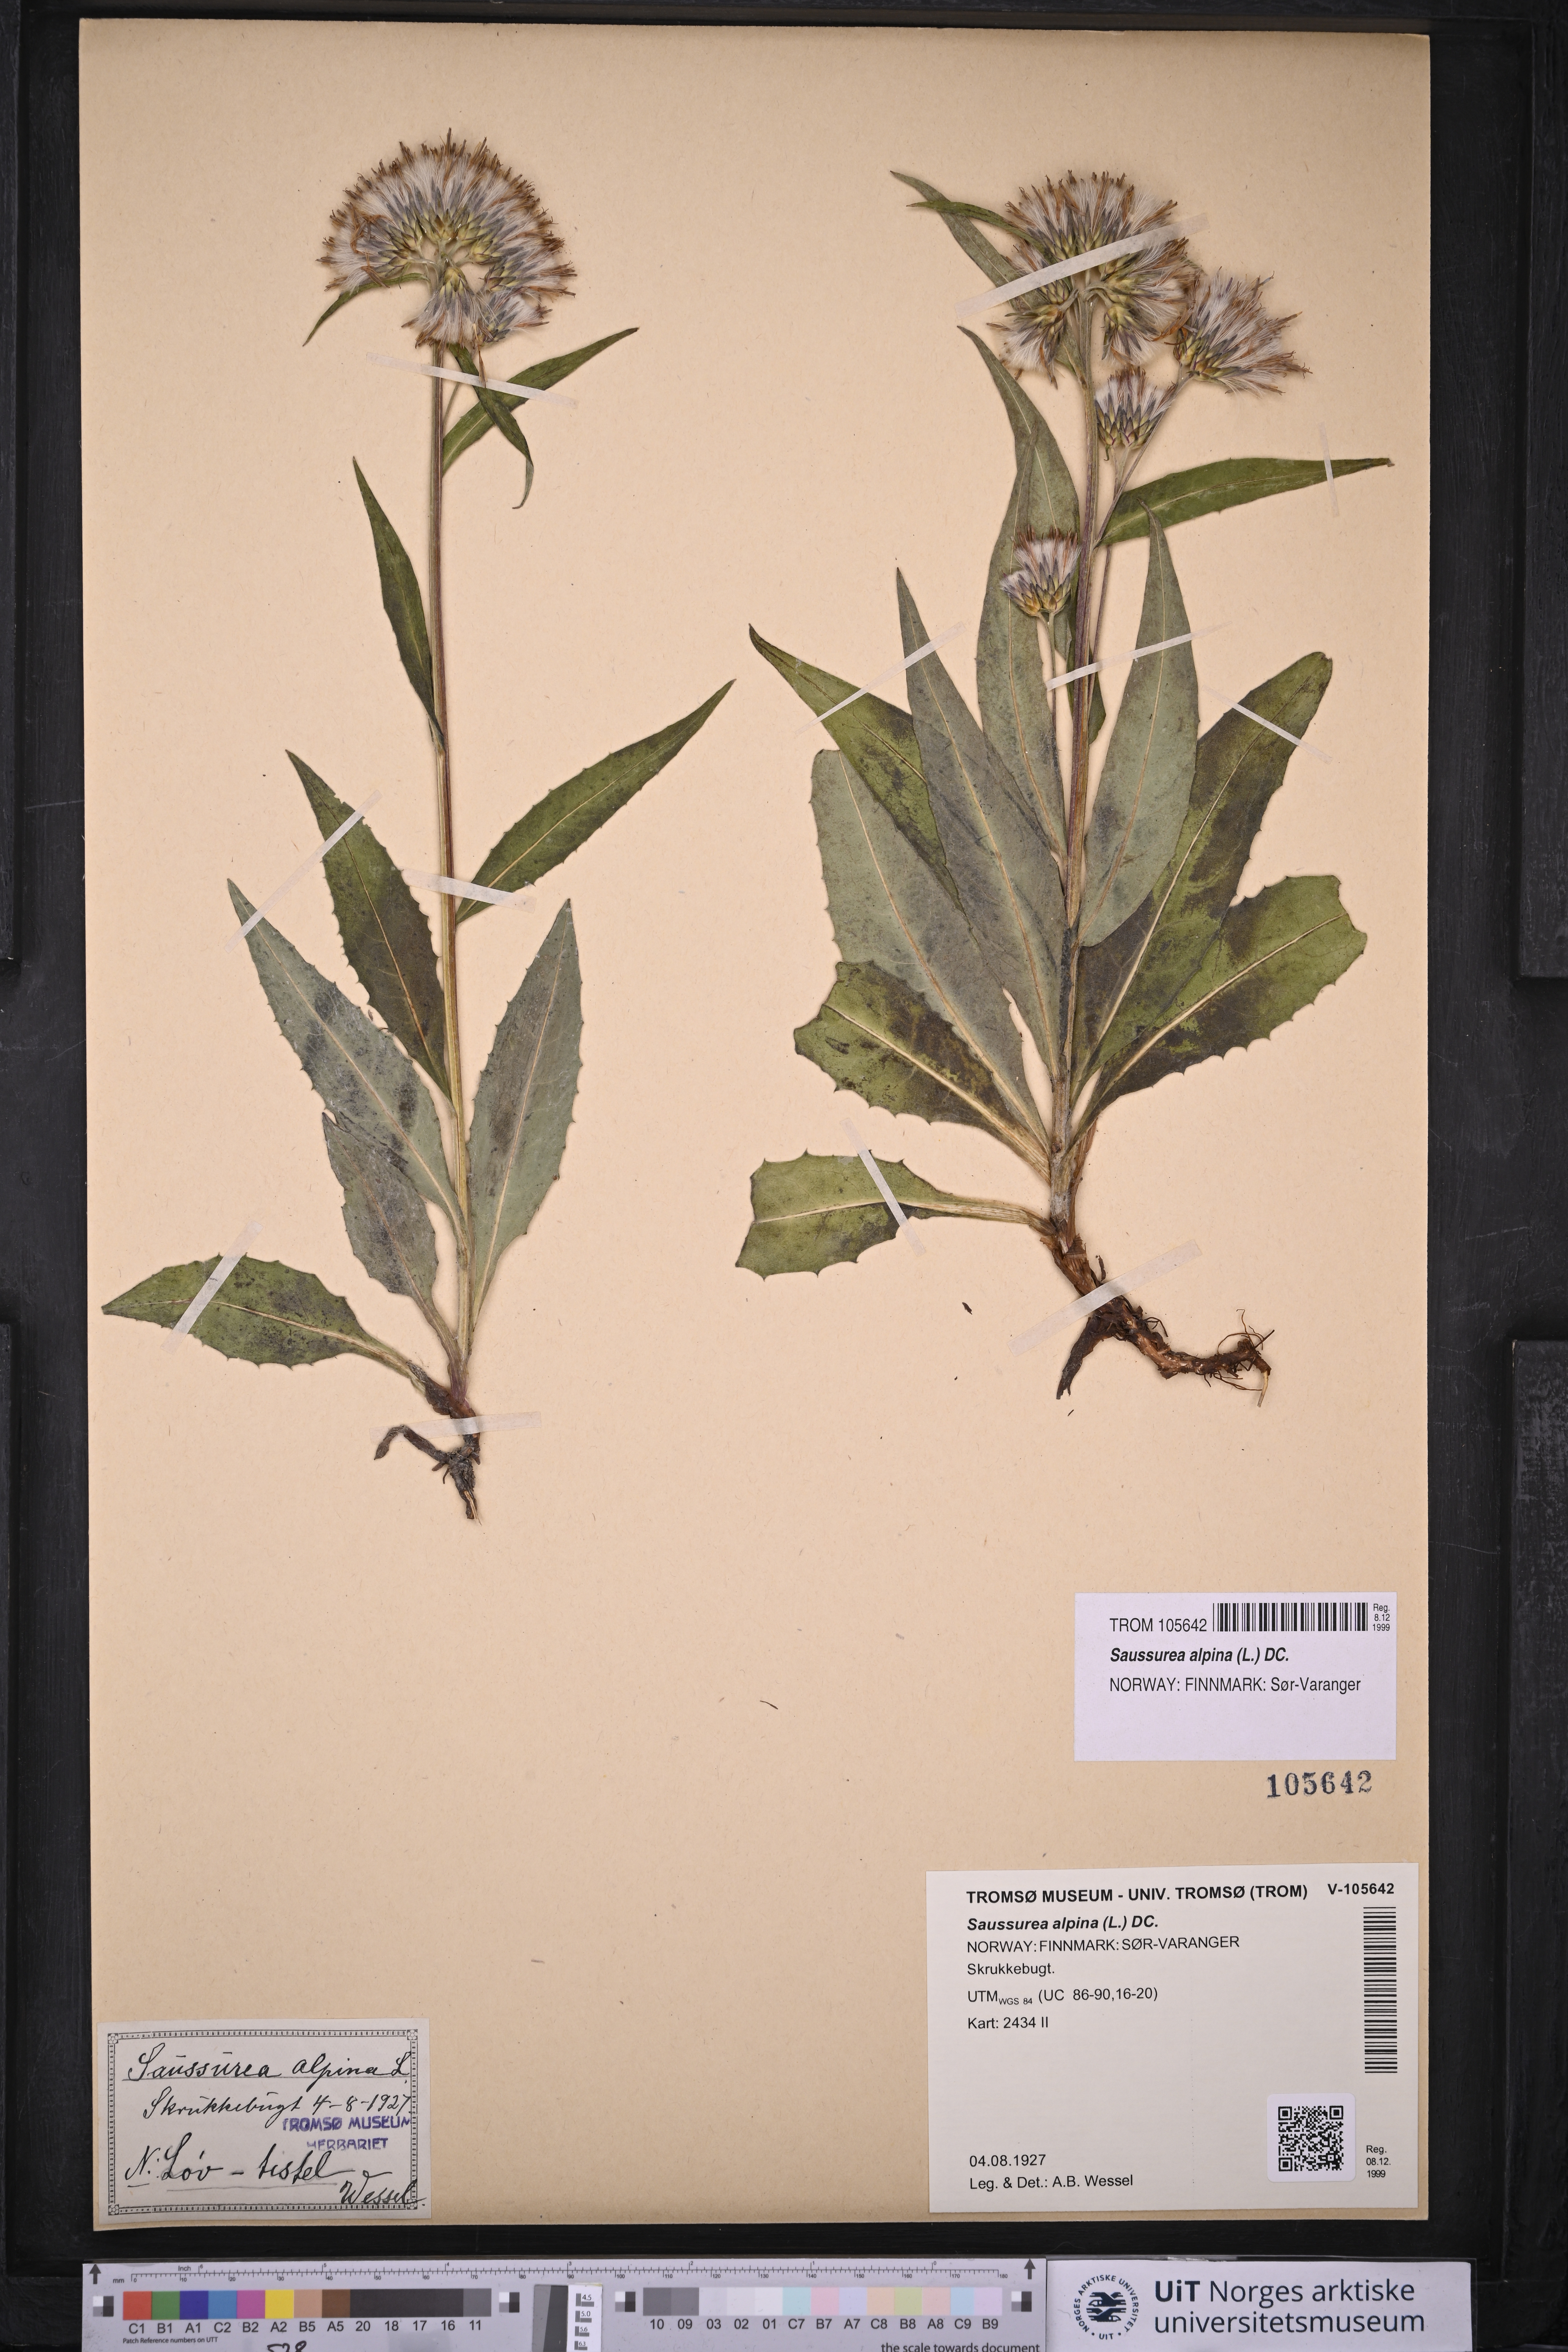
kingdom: Plantae
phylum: Tracheophyta
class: Magnoliopsida
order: Asterales
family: Asteraceae
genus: Saussurea
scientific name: Saussurea alpina
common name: Alpine saw-wort
